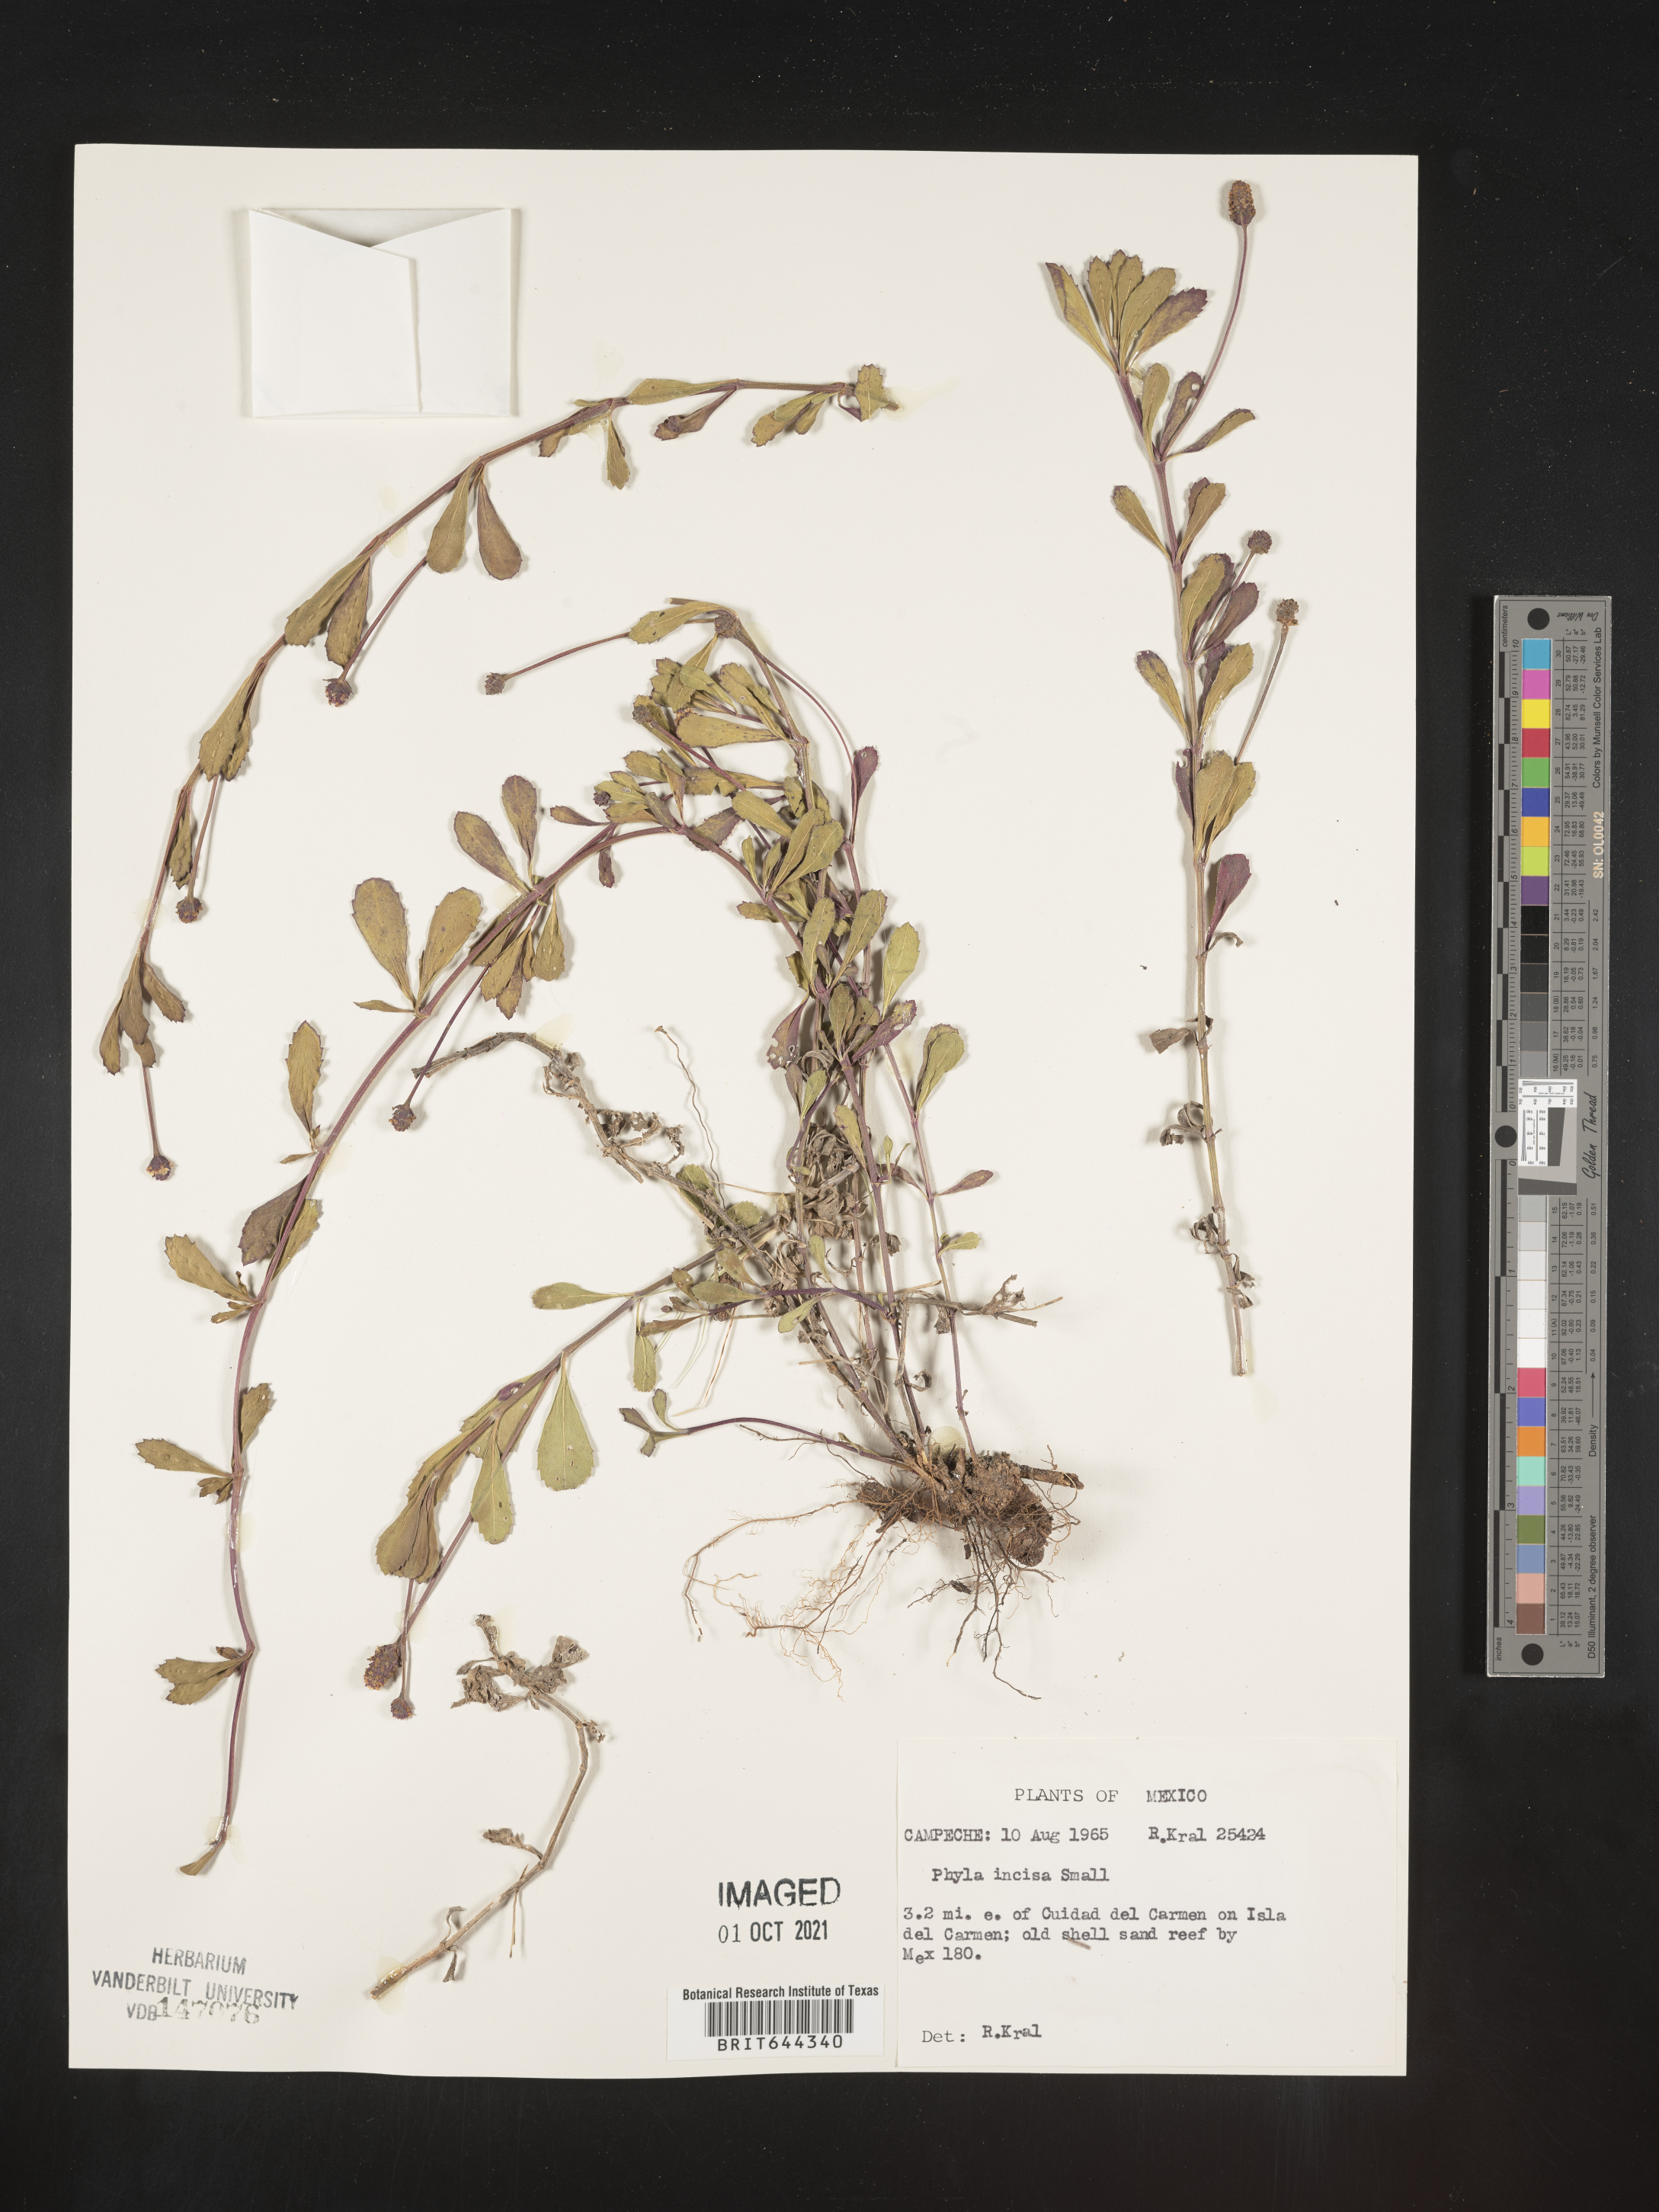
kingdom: Plantae
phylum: Tracheophyta
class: Magnoliopsida
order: Lamiales
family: Verbenaceae
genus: Phyla
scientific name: Phyla
